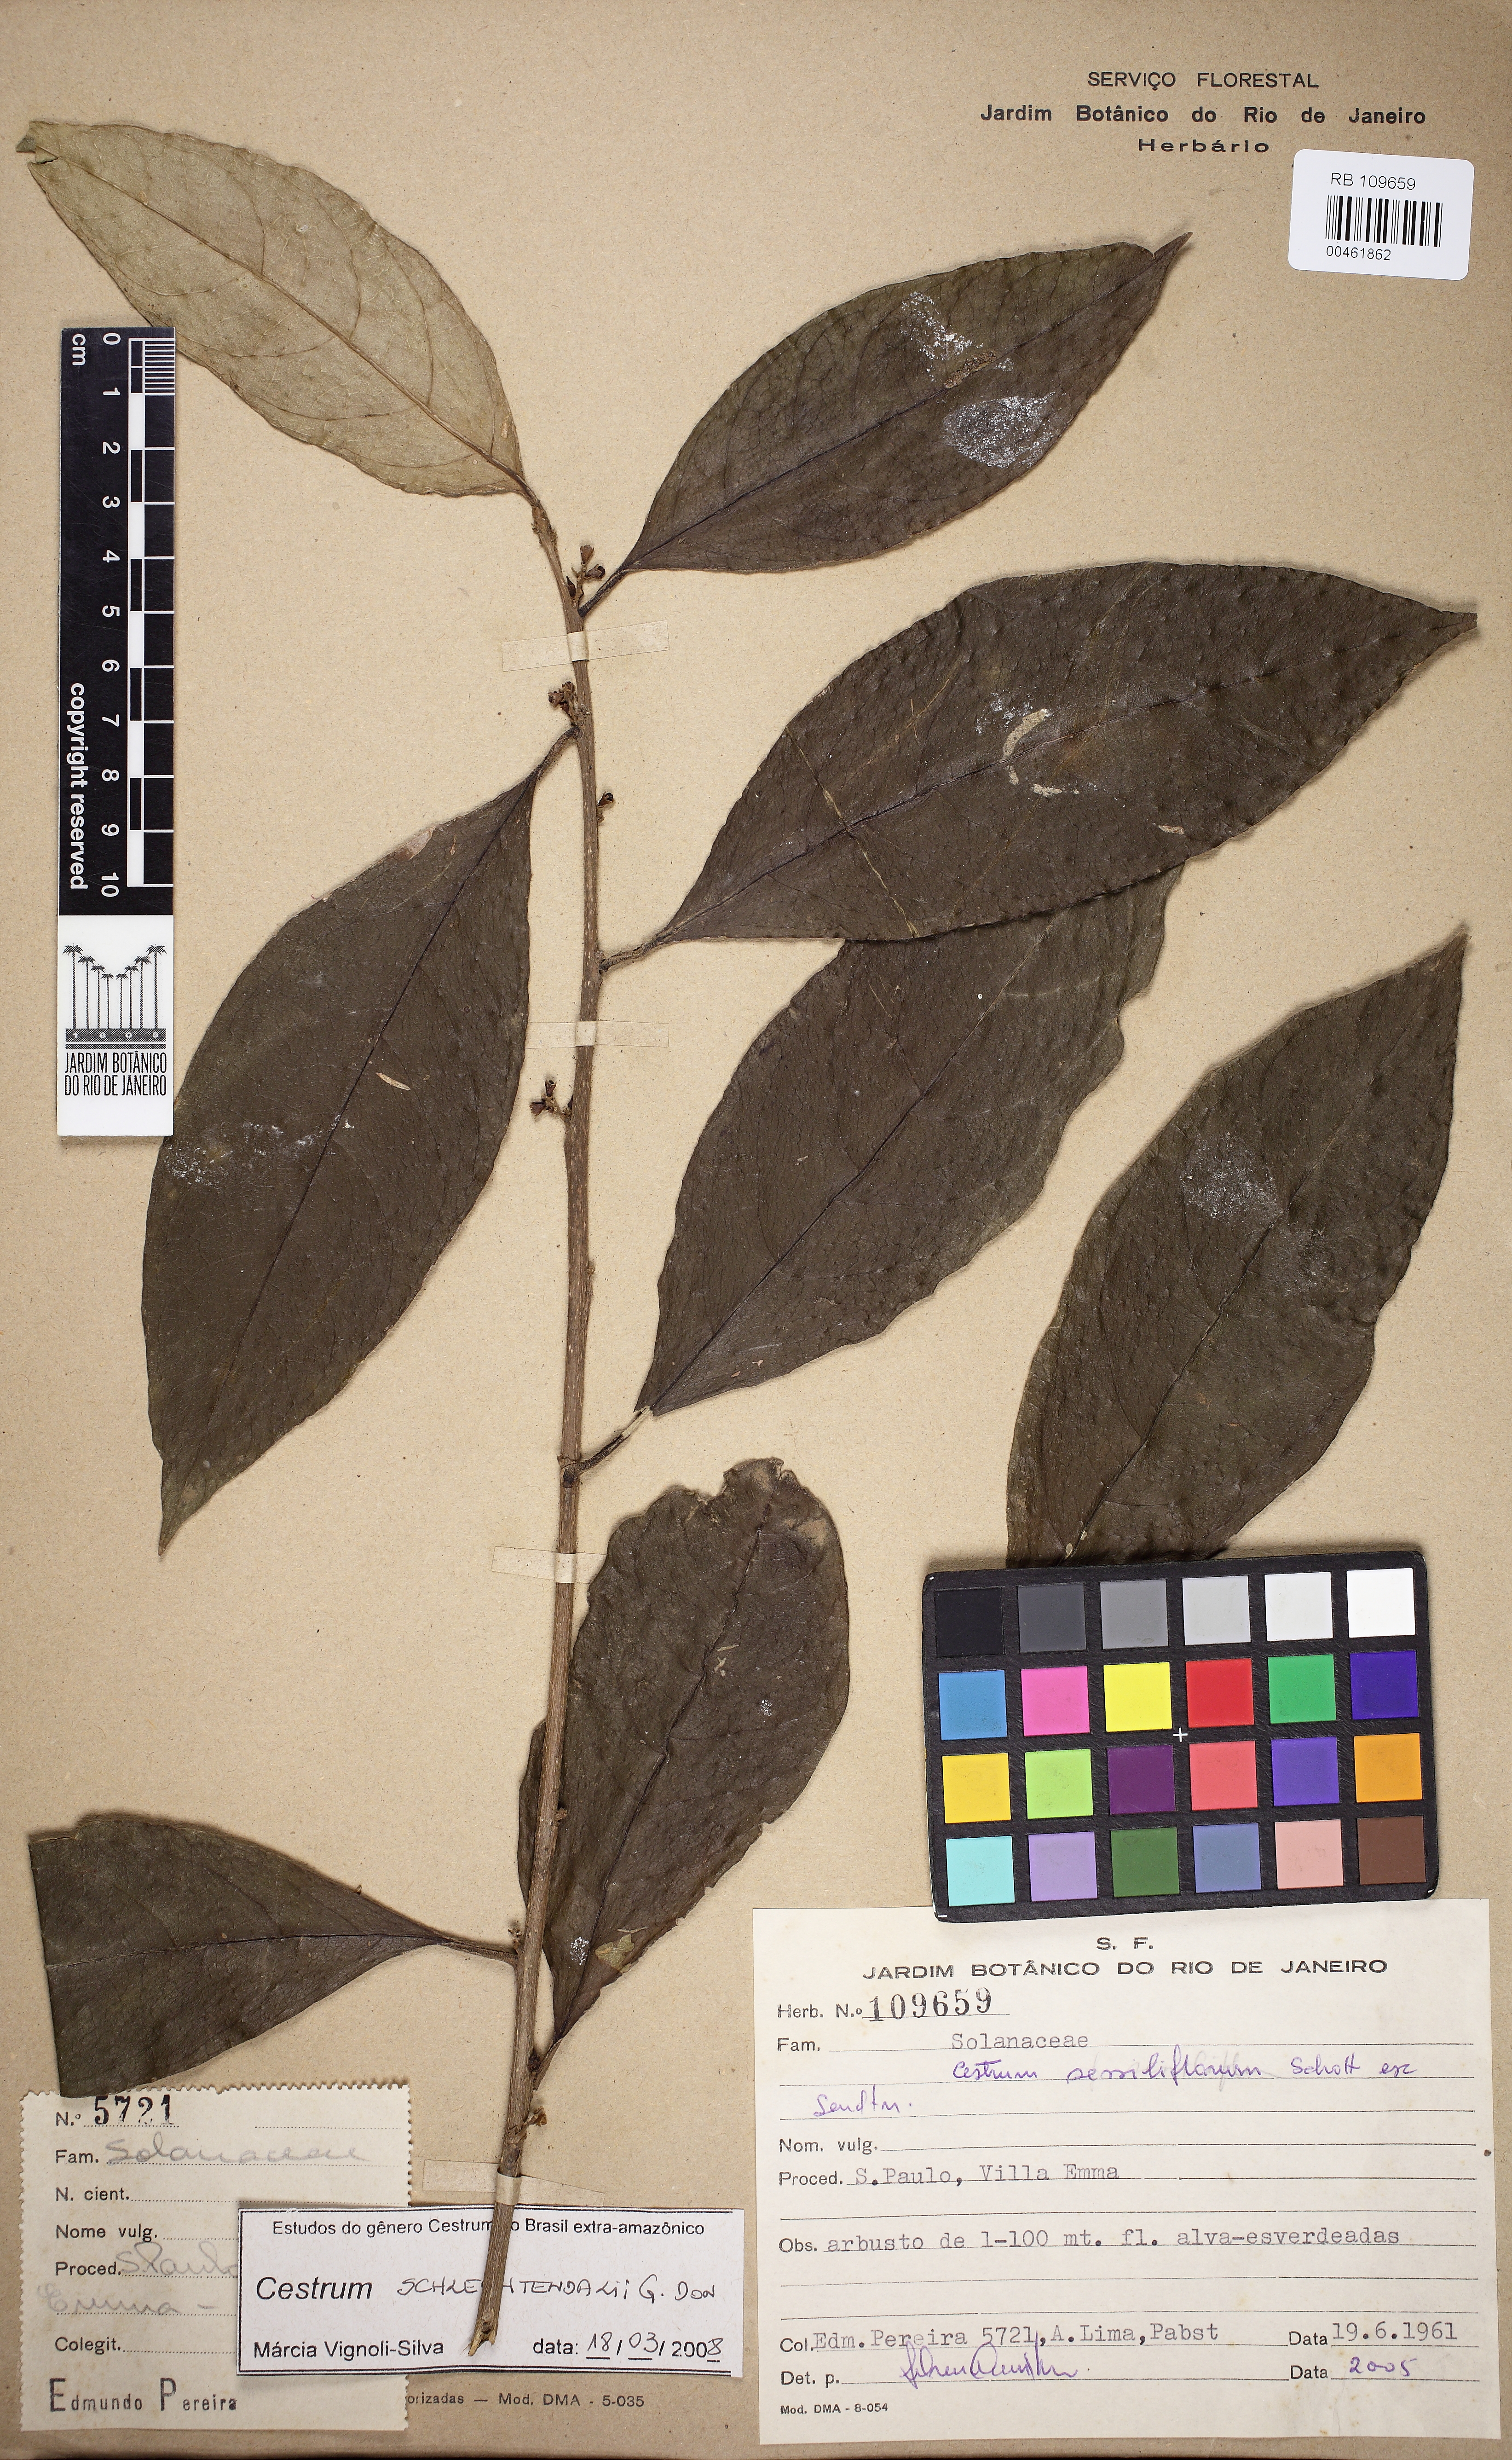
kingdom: Plantae
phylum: Tracheophyta
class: Magnoliopsida
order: Solanales
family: Solanaceae
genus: Cestrum
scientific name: Cestrum schlechtendalii
